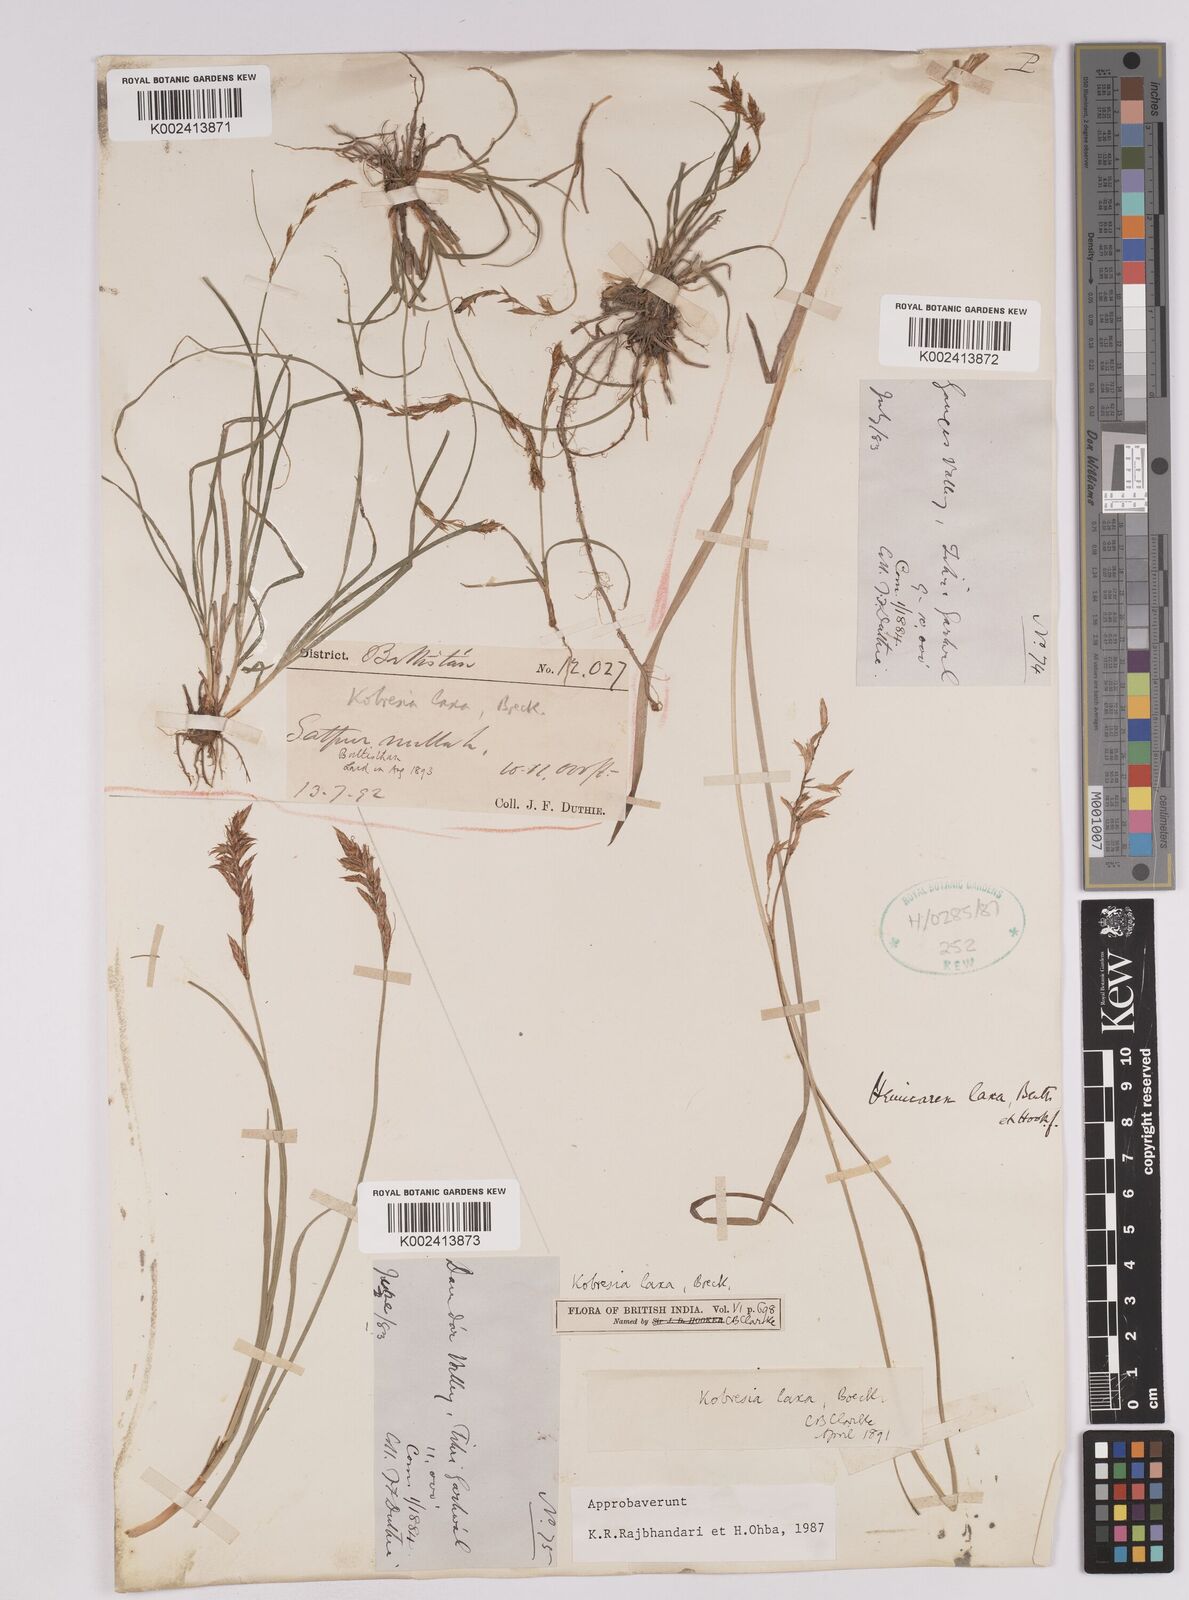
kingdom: Plantae
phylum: Tracheophyta
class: Liliopsida
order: Poales
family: Cyperaceae
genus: Carex
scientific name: Carex pseudolaxa
